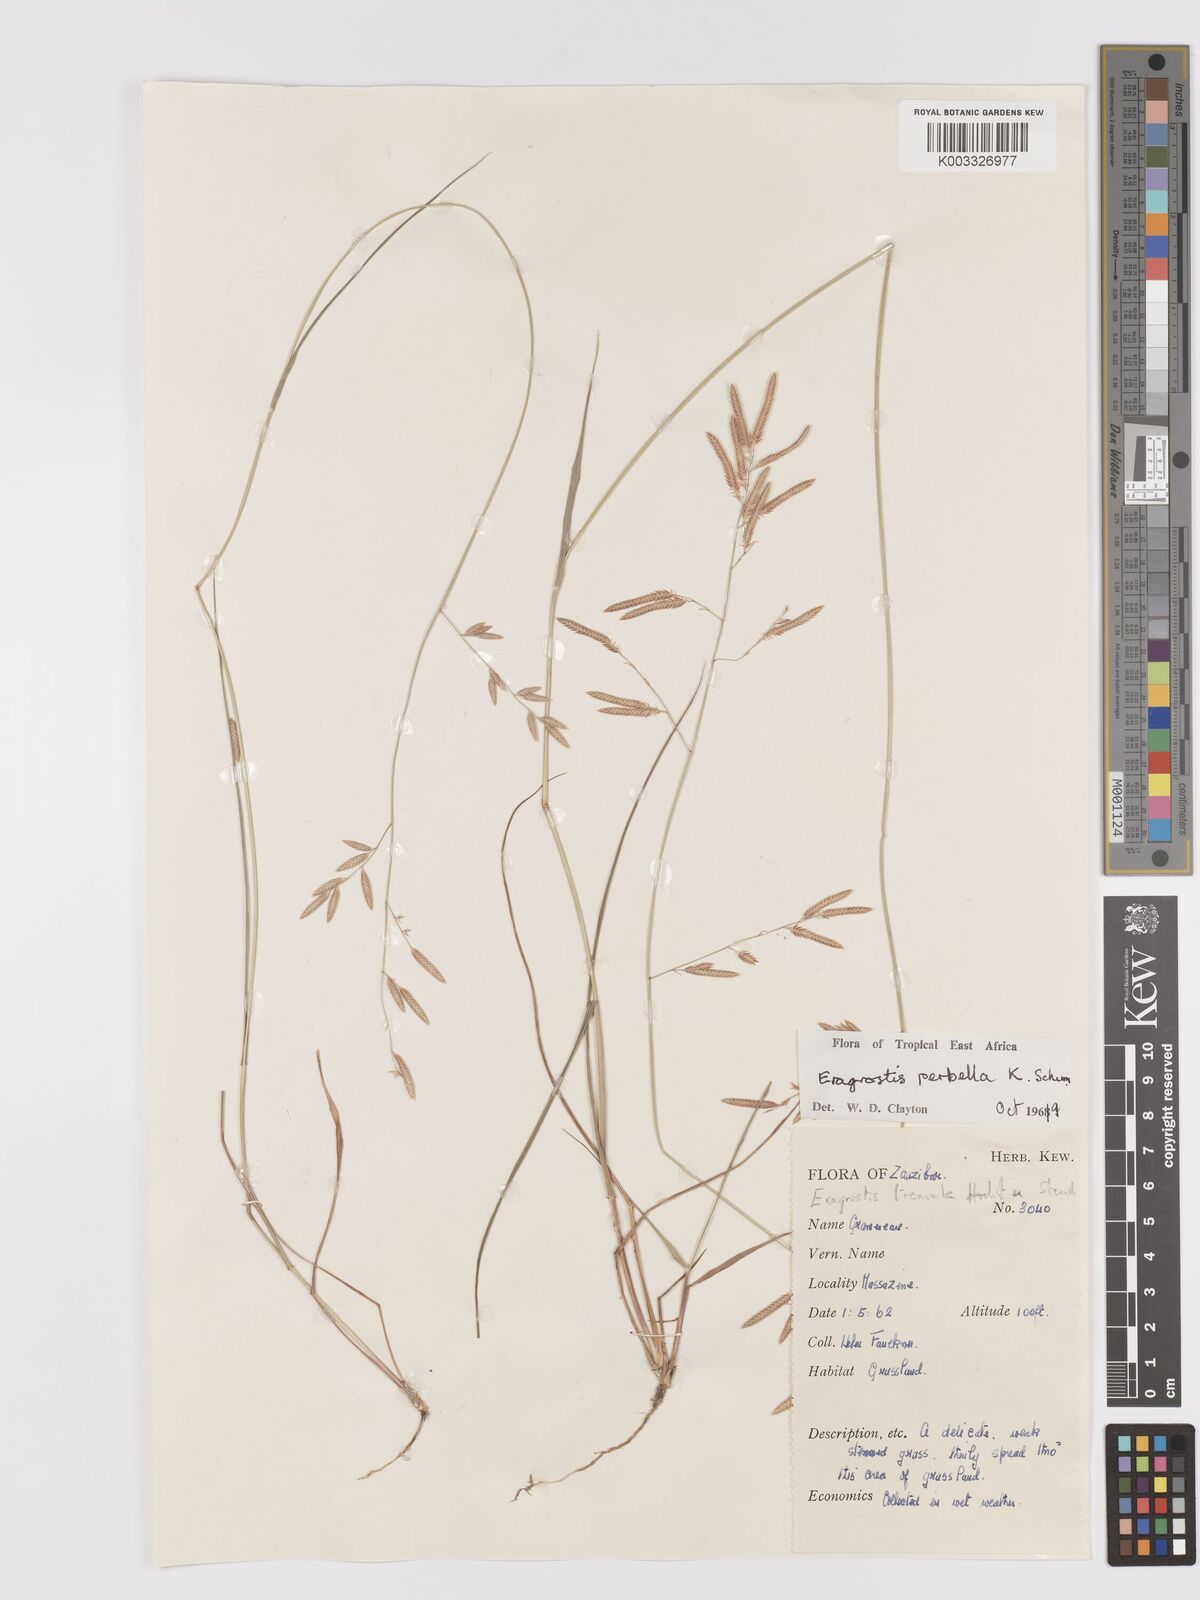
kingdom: Plantae
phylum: Tracheophyta
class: Liliopsida
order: Poales
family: Poaceae
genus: Eragrostis
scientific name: Eragrostis perbella
